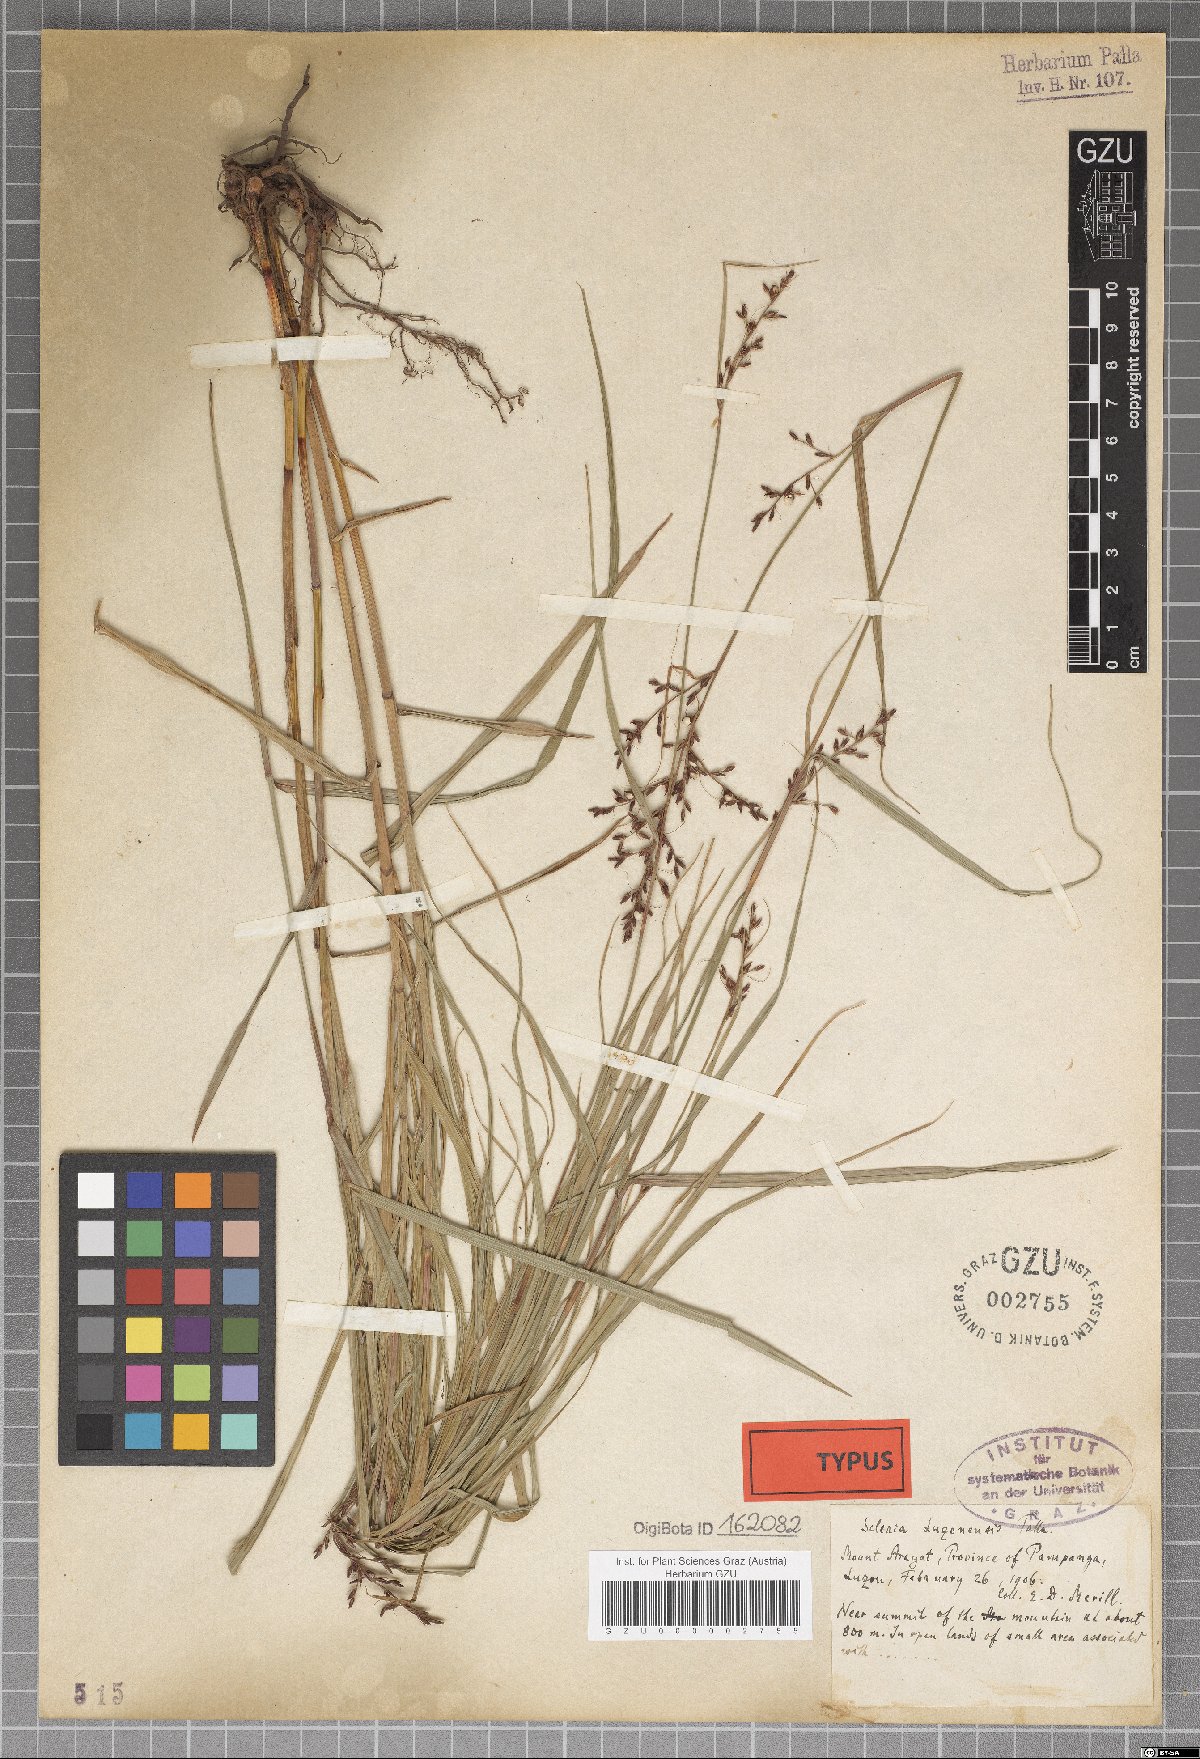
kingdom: Plantae
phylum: Tracheophyta
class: Liliopsida
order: Poales
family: Cyperaceae
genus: Scleria
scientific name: Scleria terrestris
